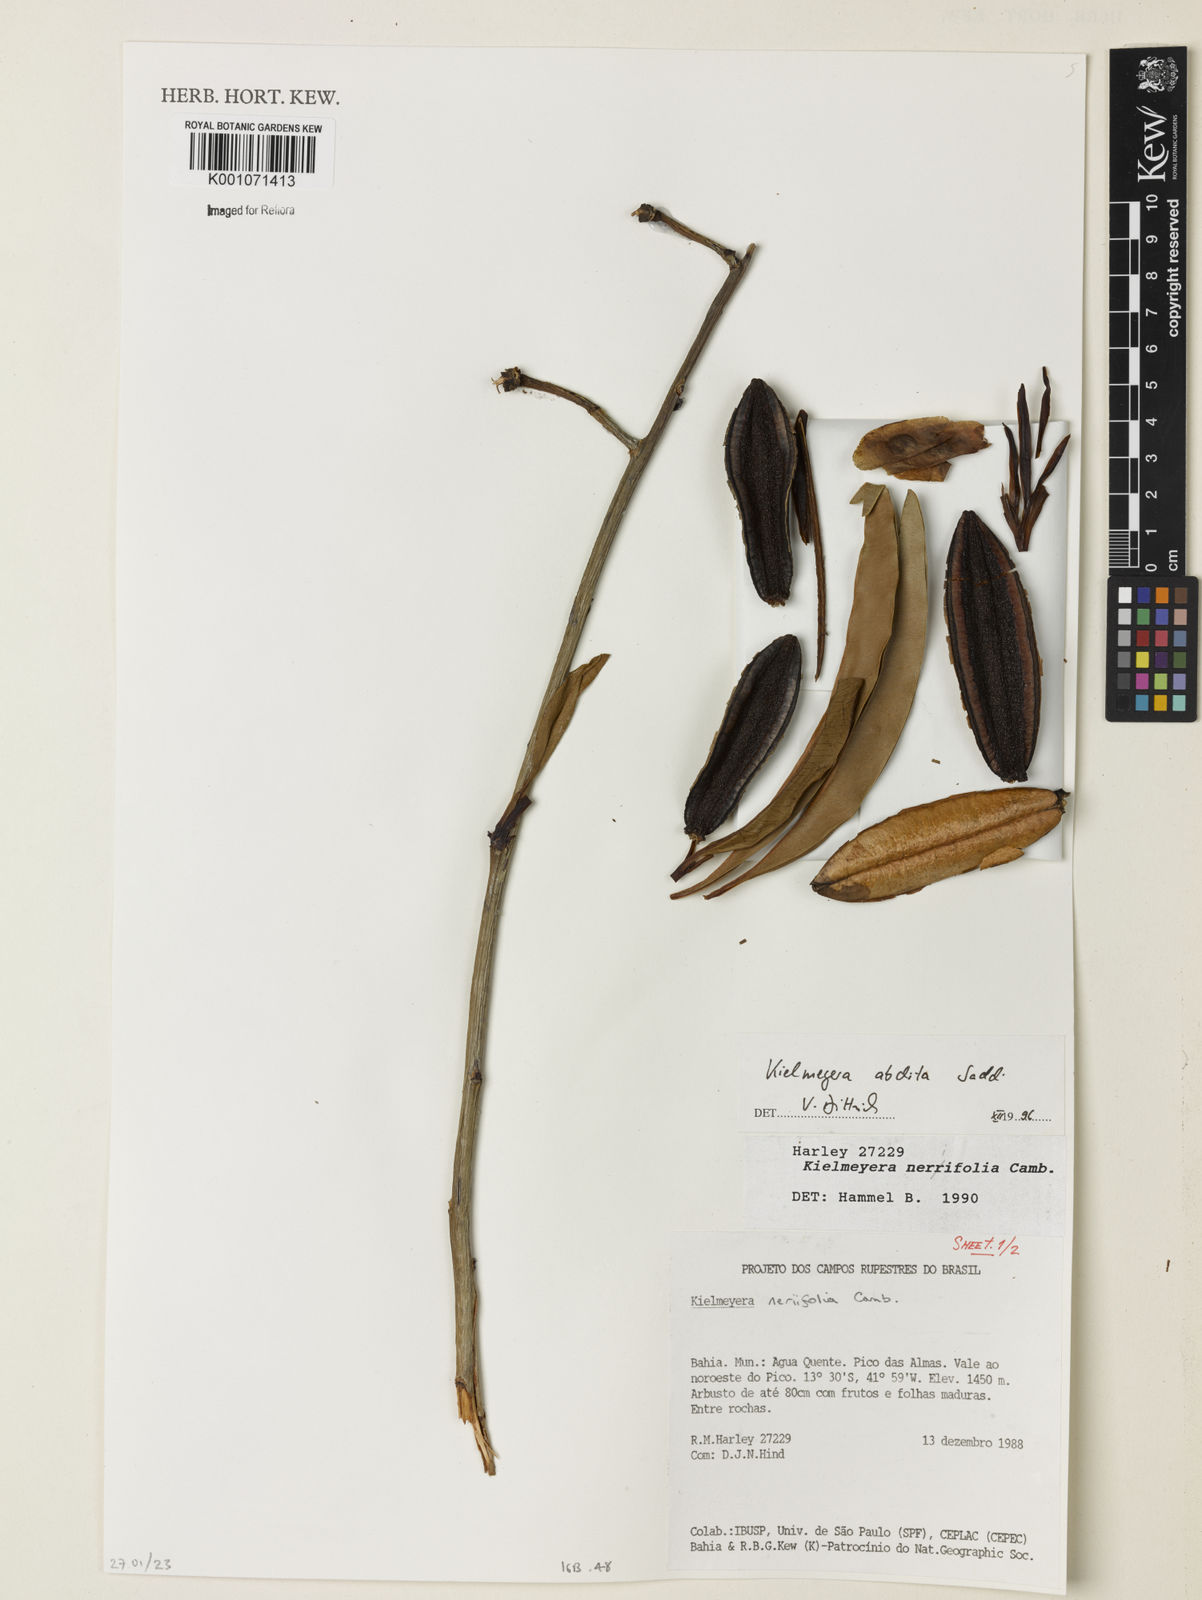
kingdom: Plantae
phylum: Tracheophyta
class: Magnoliopsida
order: Malpighiales
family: Calophyllaceae
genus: Kielmeyera
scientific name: Kielmeyera abdita
